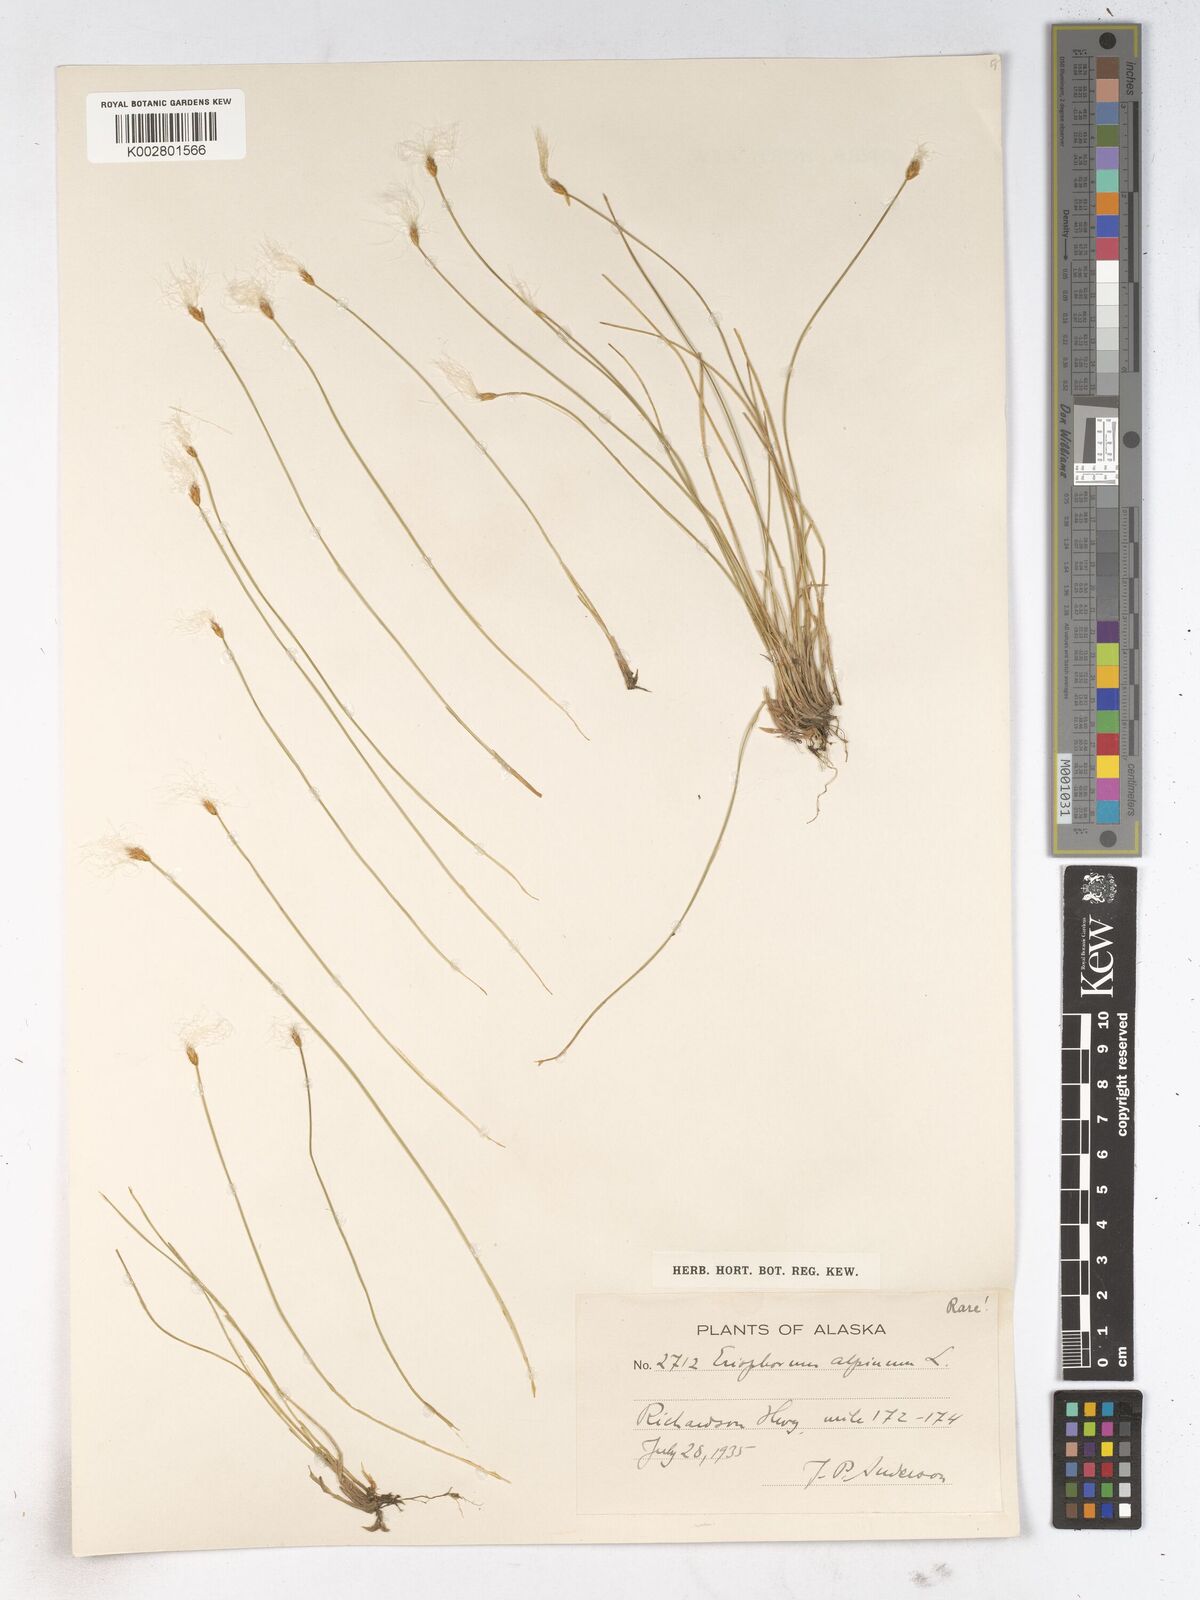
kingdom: Plantae
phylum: Tracheophyta
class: Liliopsida
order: Poales
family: Cyperaceae
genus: Trichophorum
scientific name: Trichophorum alpinum
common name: Alpine bulrush
